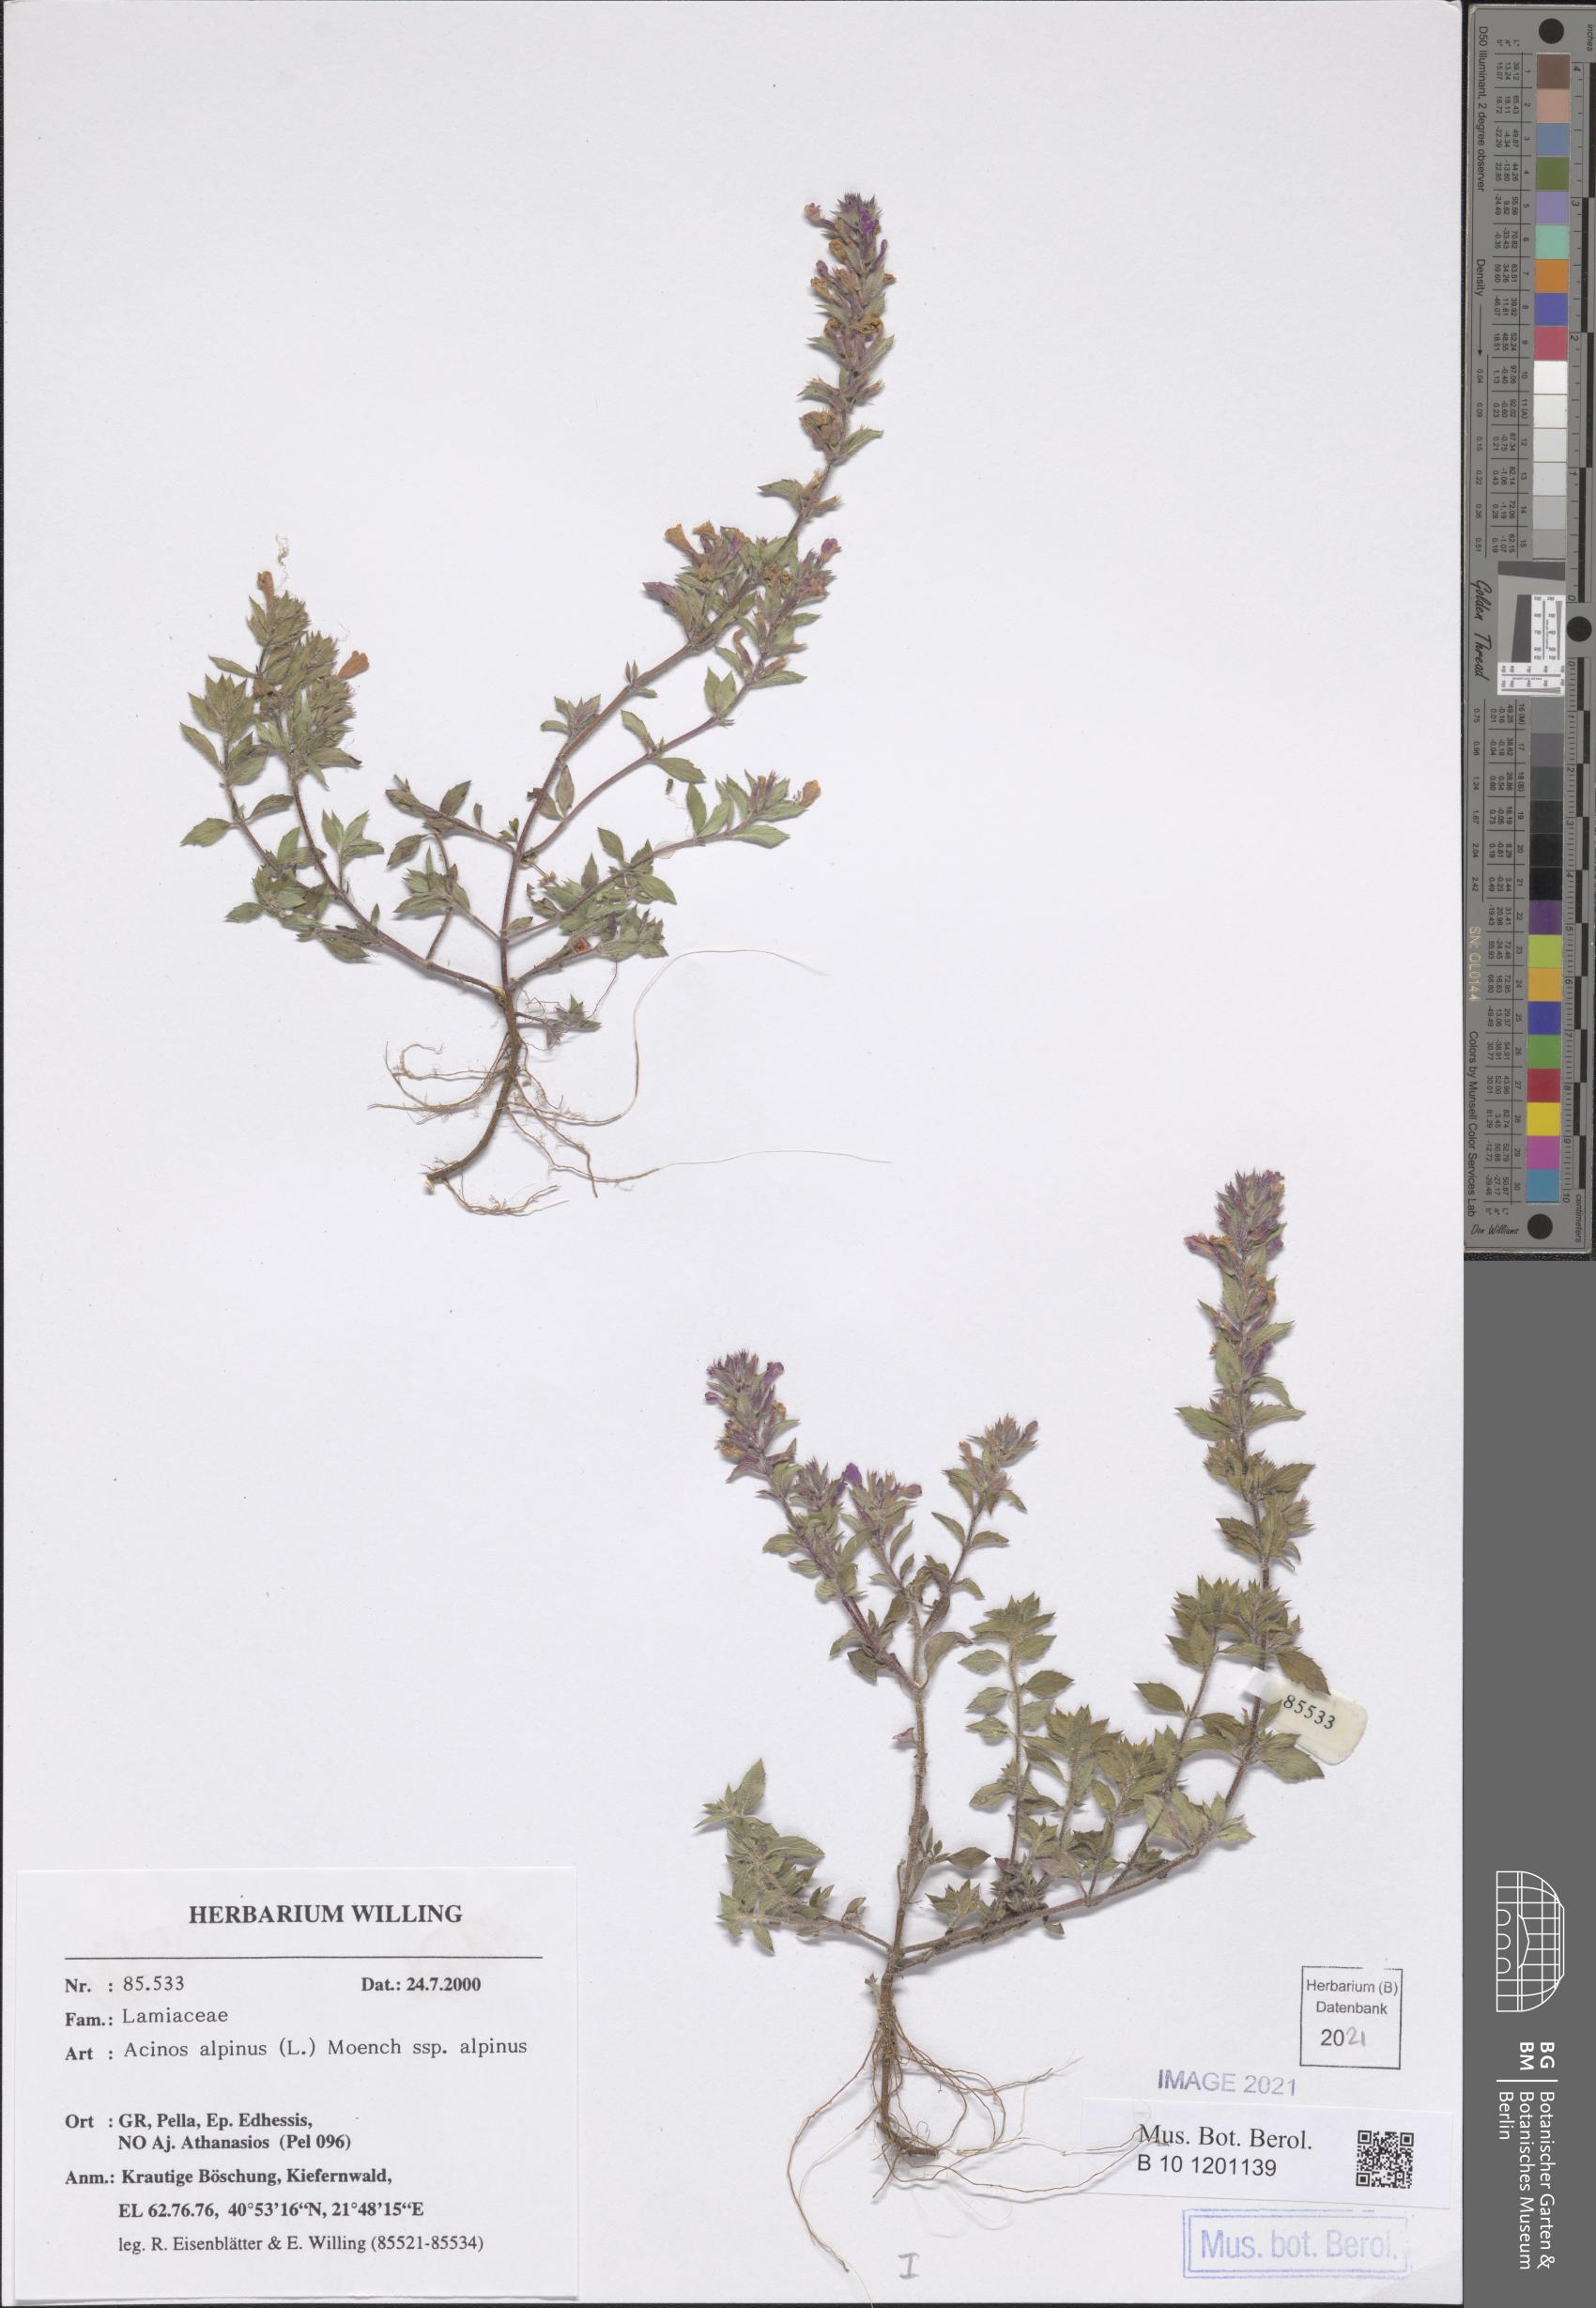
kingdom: Plantae
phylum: Tracheophyta
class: Magnoliopsida
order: Lamiales
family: Lamiaceae
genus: Clinopodium
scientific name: Clinopodium alpinum
